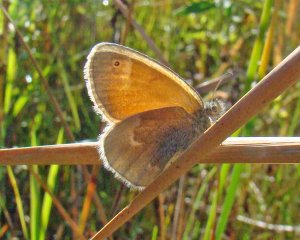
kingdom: Animalia
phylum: Arthropoda
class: Insecta
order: Lepidoptera
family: Nymphalidae
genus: Coenonympha
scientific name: Coenonympha tullia
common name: Large Heath
